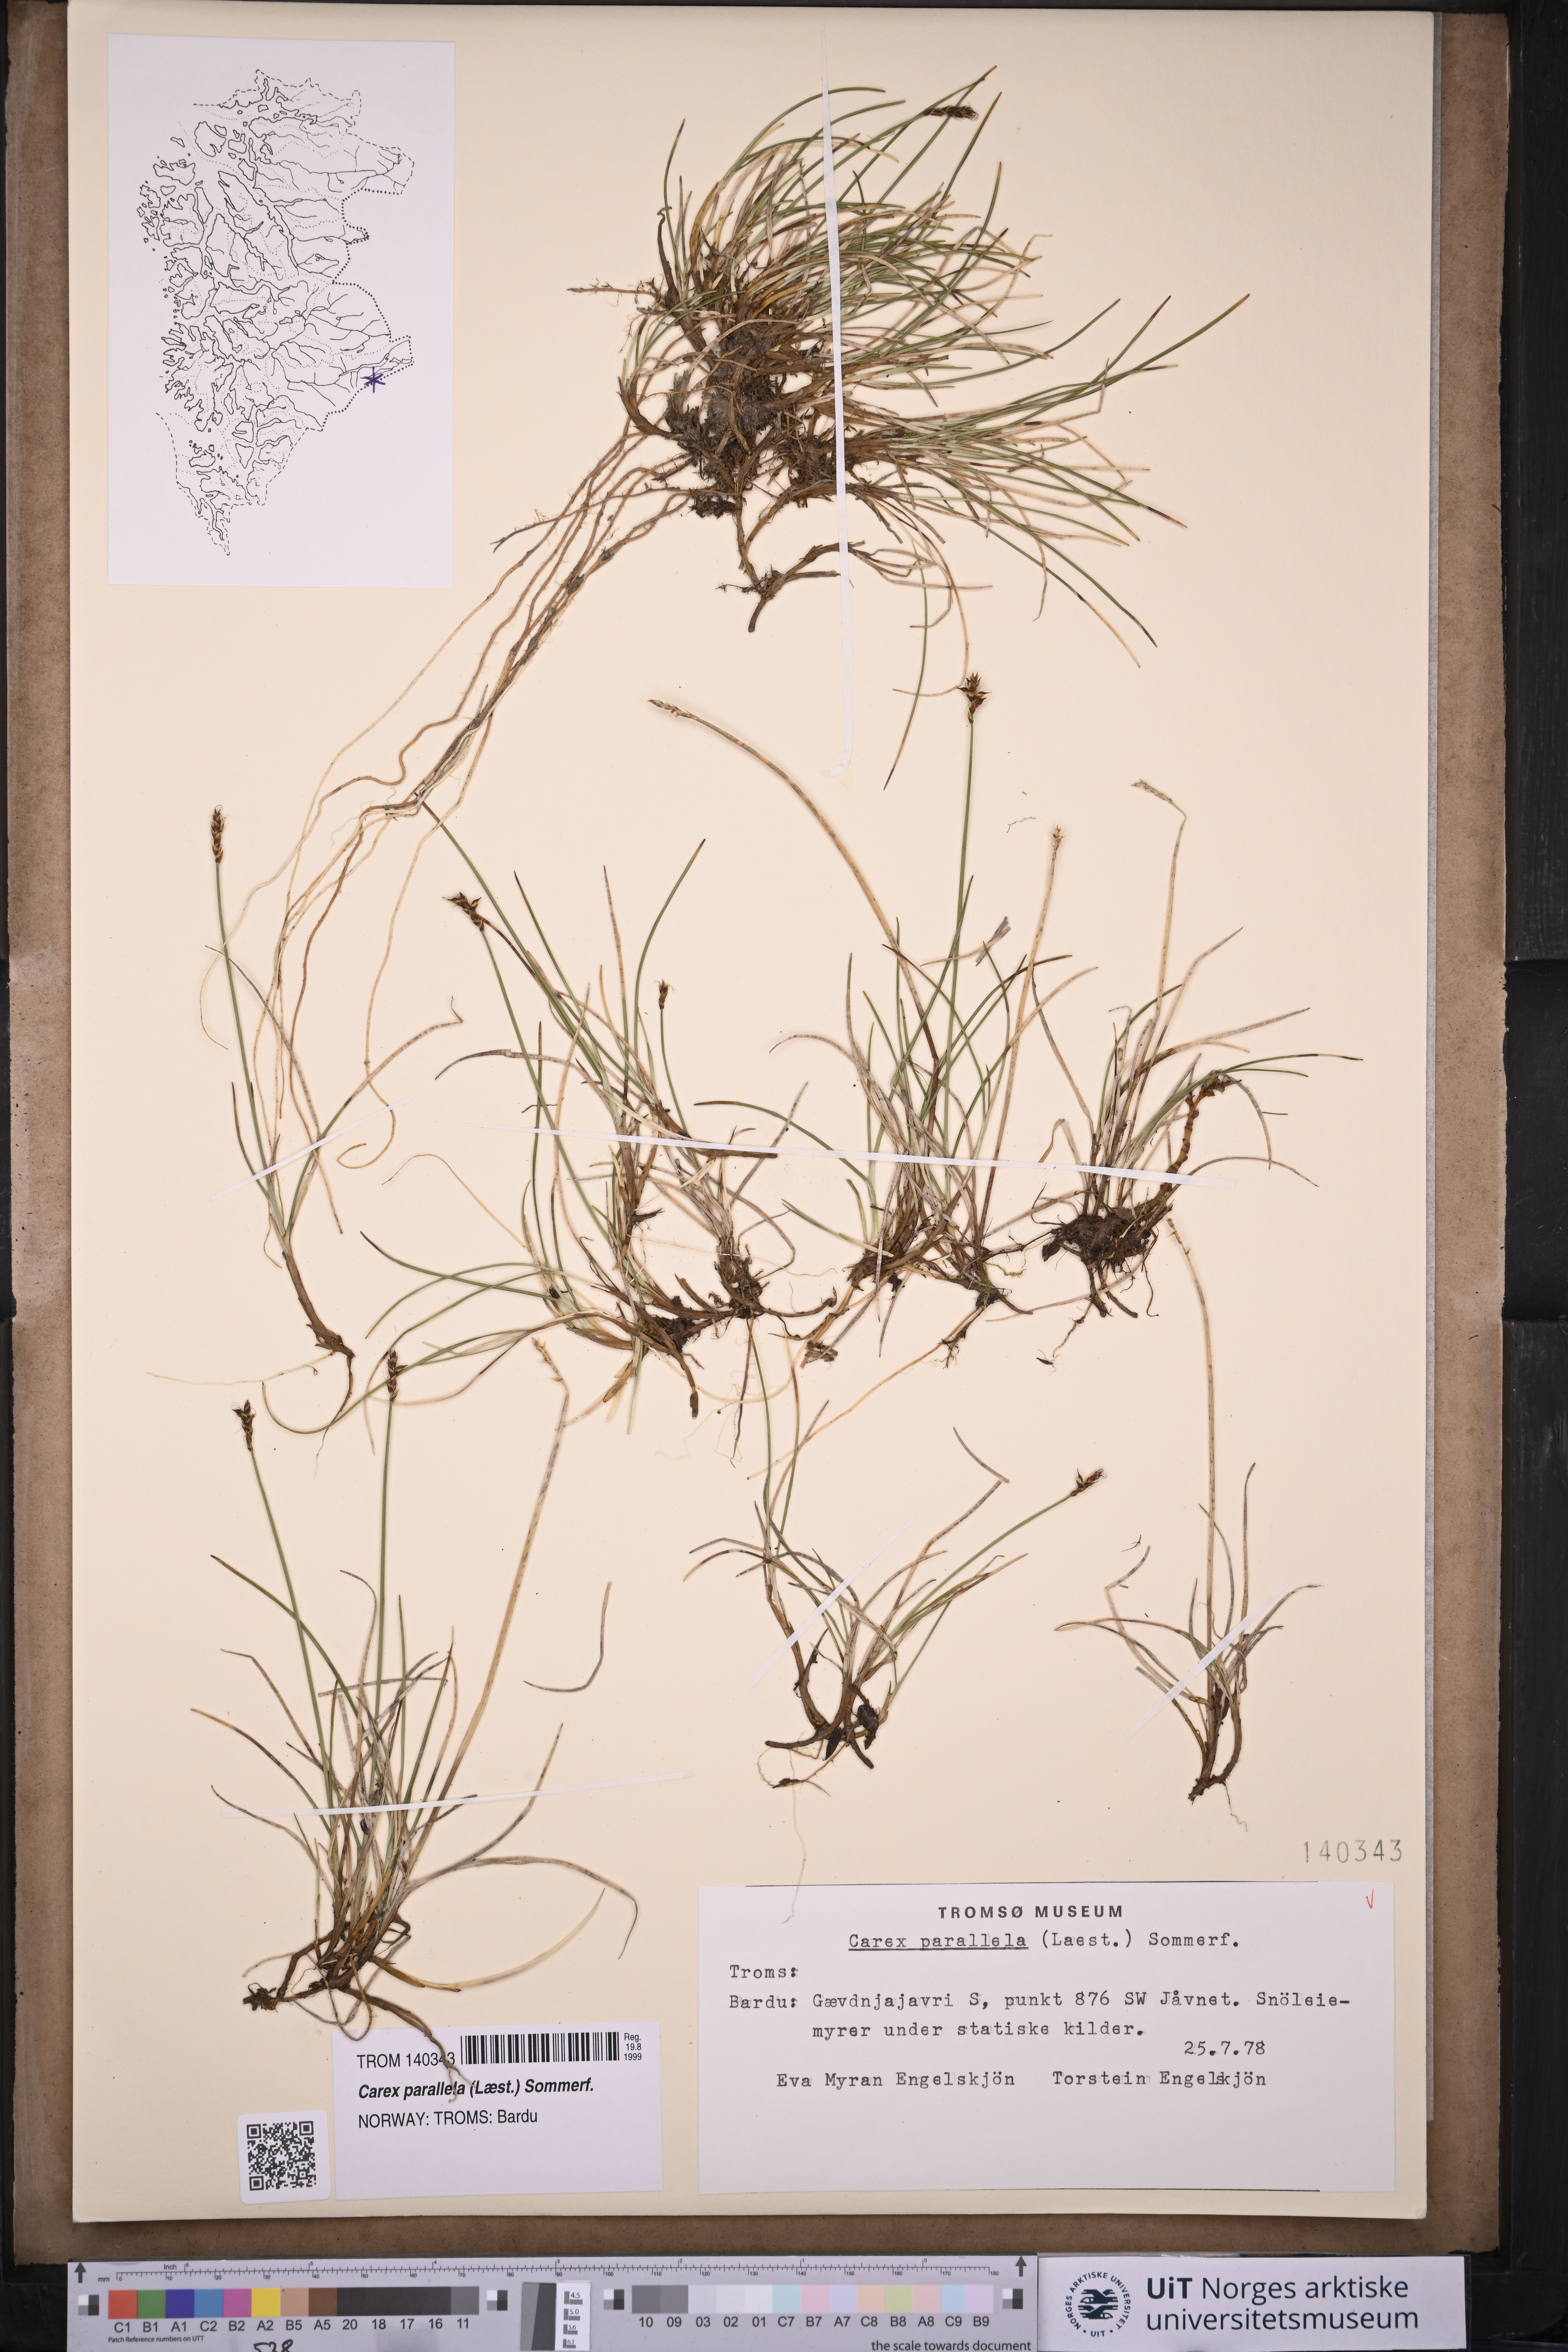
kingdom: Plantae
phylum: Tracheophyta
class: Liliopsida
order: Poales
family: Cyperaceae
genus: Carex
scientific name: Carex parallela
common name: Parallel sedge
